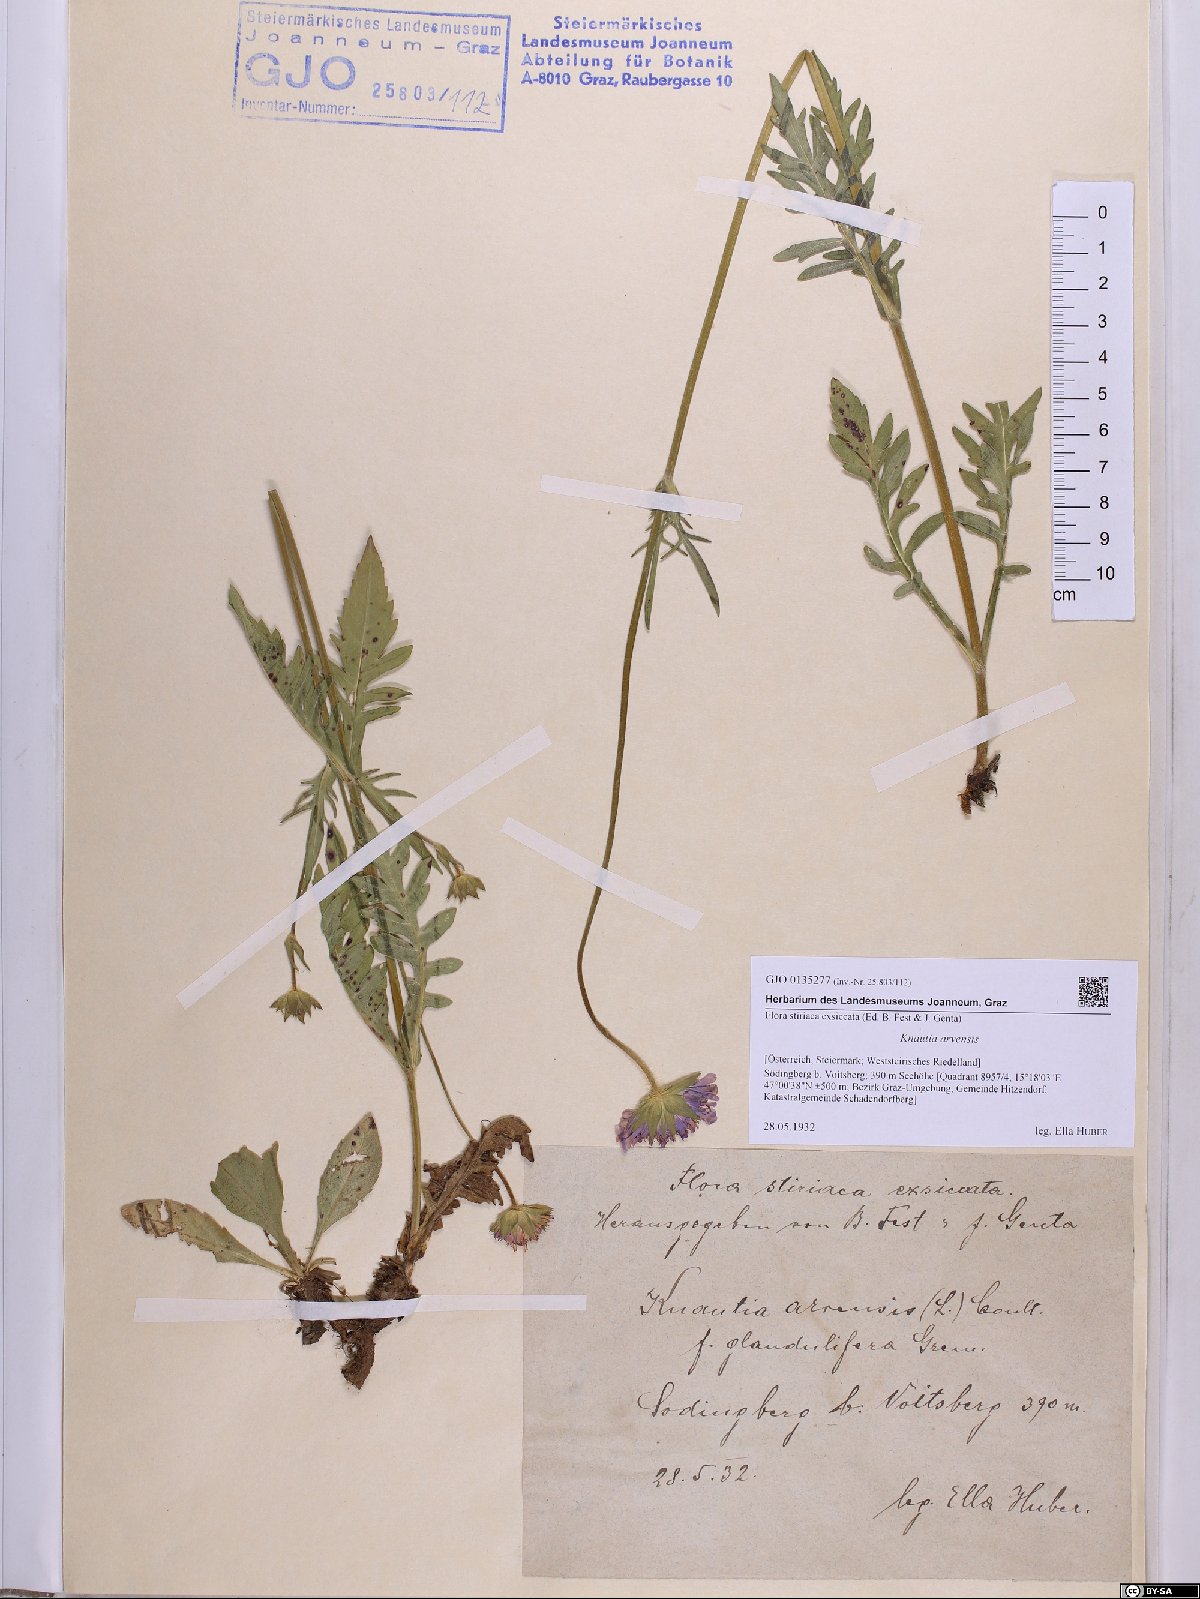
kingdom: Plantae
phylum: Tracheophyta
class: Magnoliopsida
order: Dipsacales
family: Caprifoliaceae
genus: Knautia
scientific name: Knautia arvensis
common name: Field scabiosa
